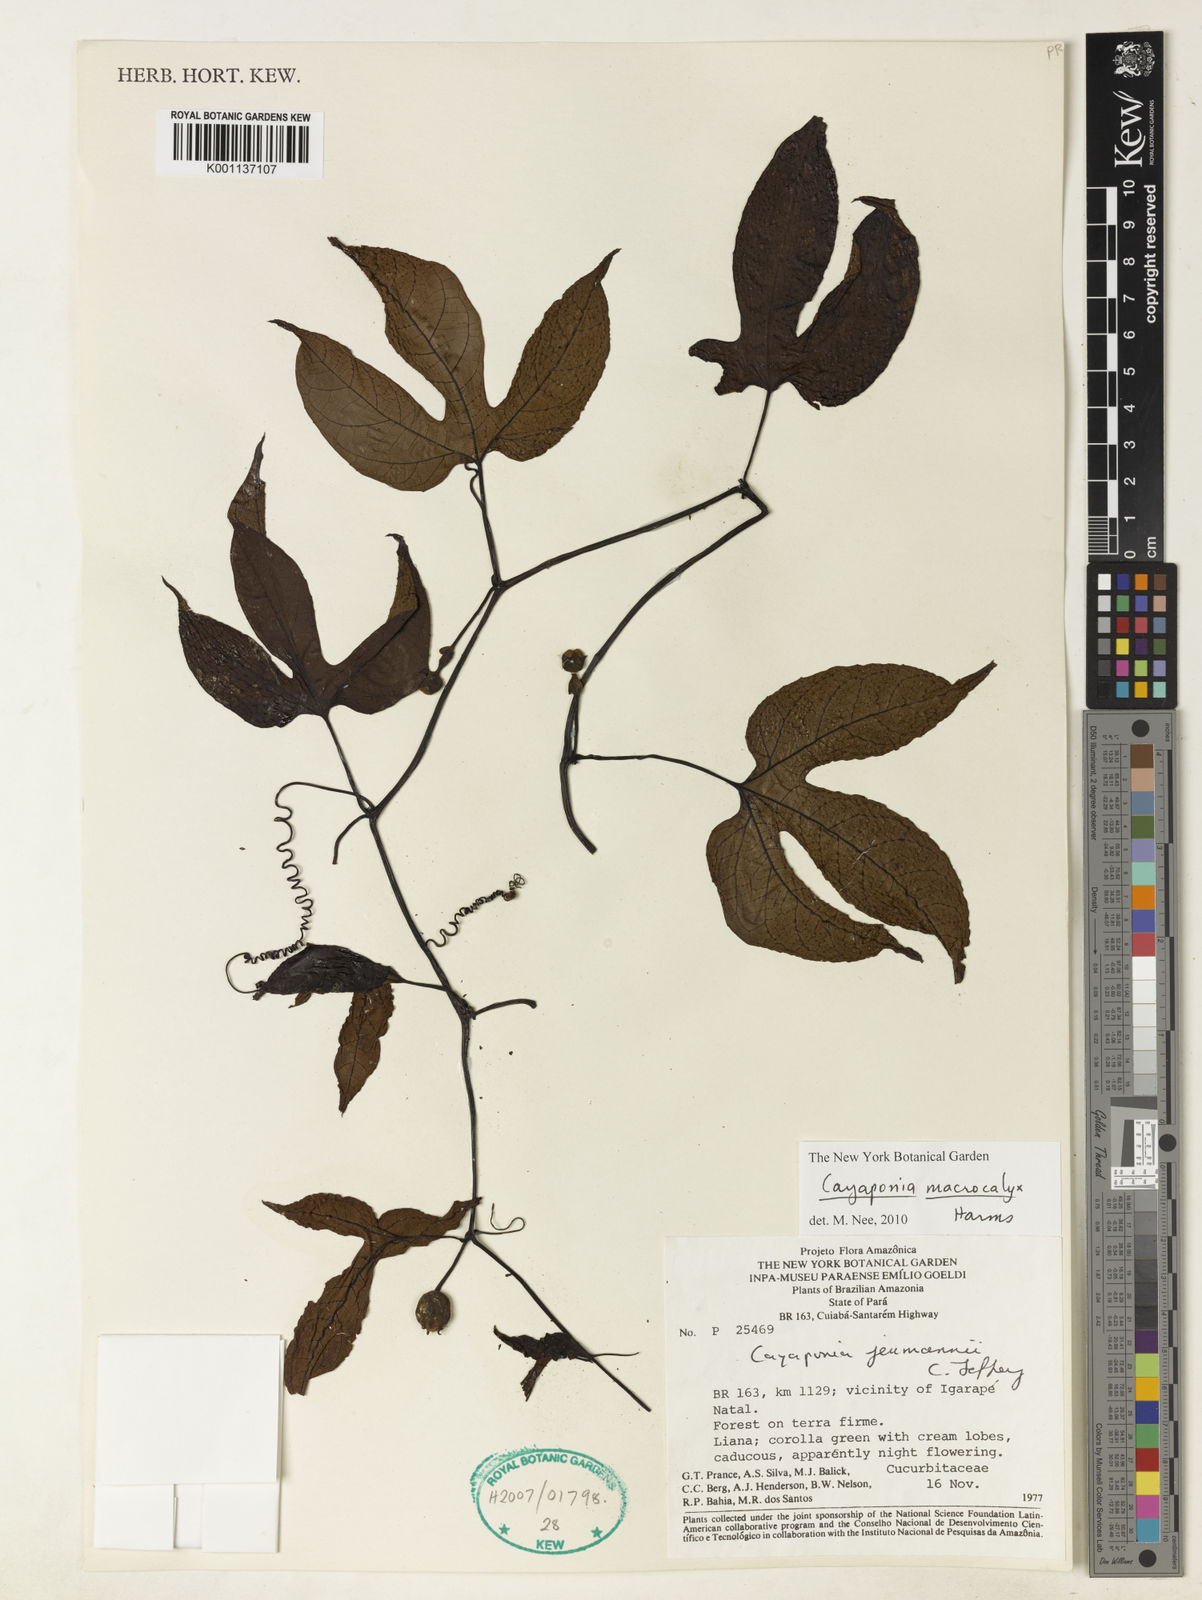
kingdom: Plantae
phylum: Tracheophyta
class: Magnoliopsida
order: Cucurbitales
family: Cucurbitaceae
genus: Cayaponia
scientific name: Cayaponia macrocalyx
